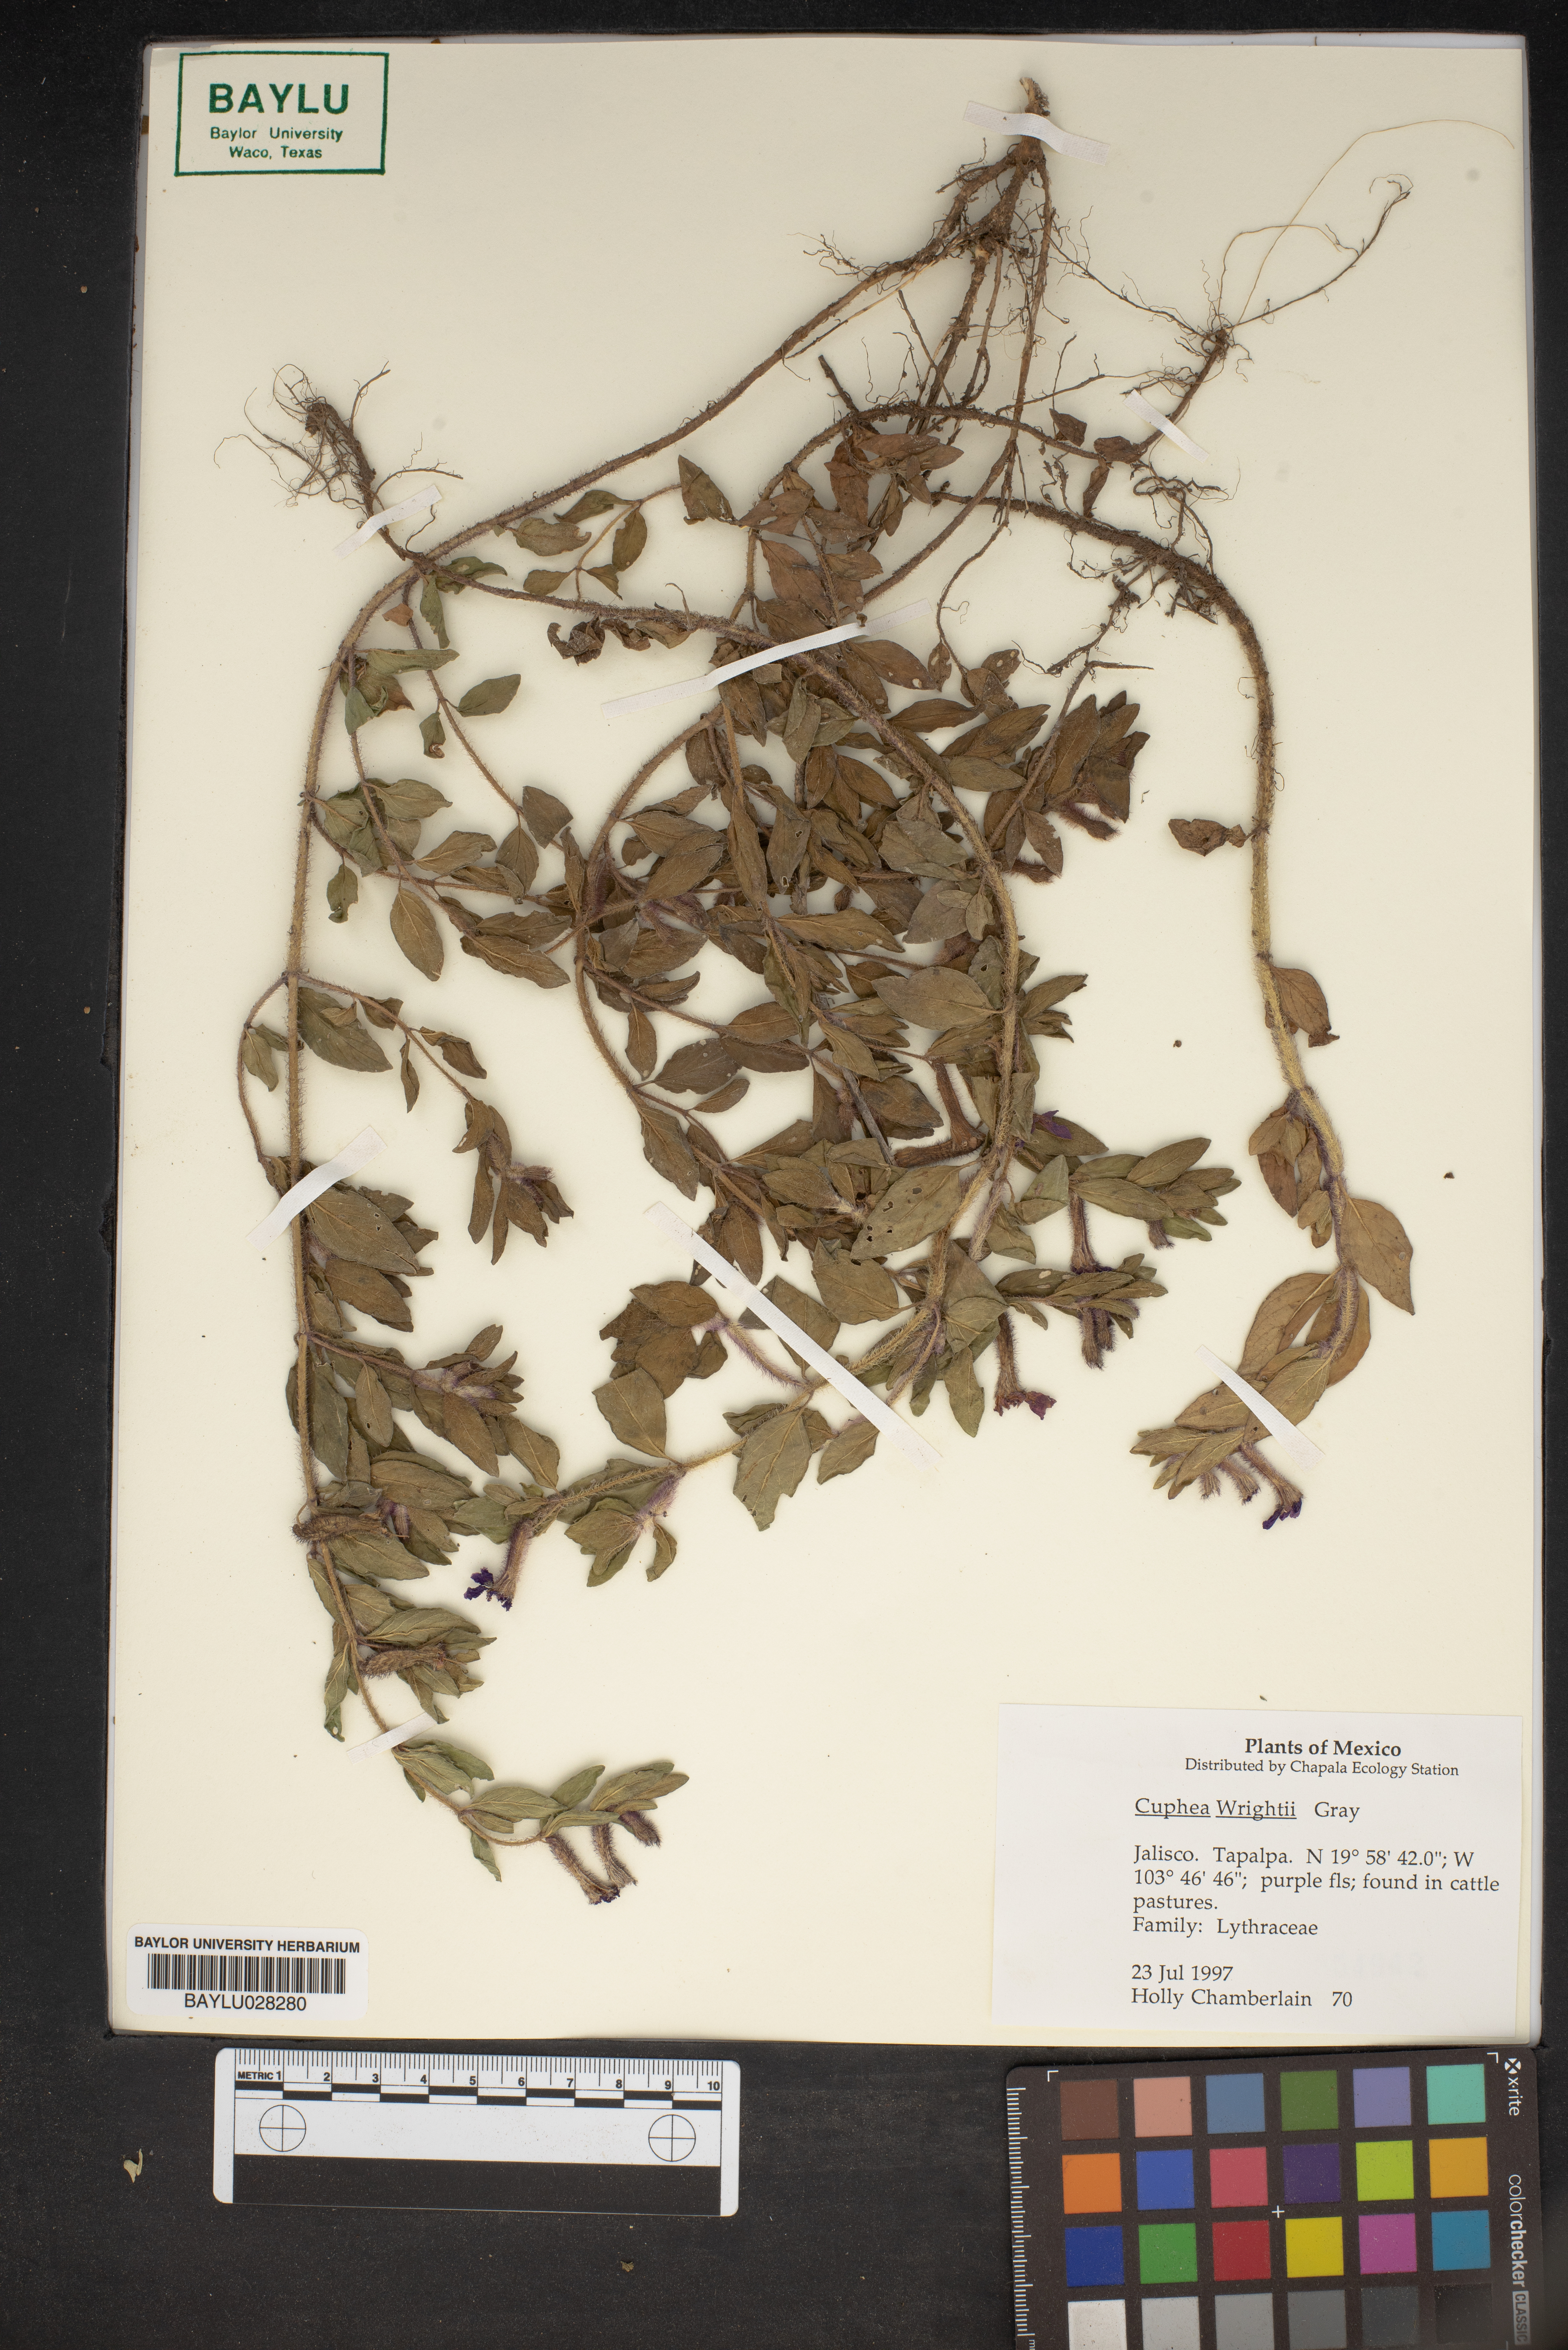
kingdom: Plantae
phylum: Tracheophyta
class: Magnoliopsida
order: Myrtales
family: Lythraceae
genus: Cuphea
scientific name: Cuphea wrightii
